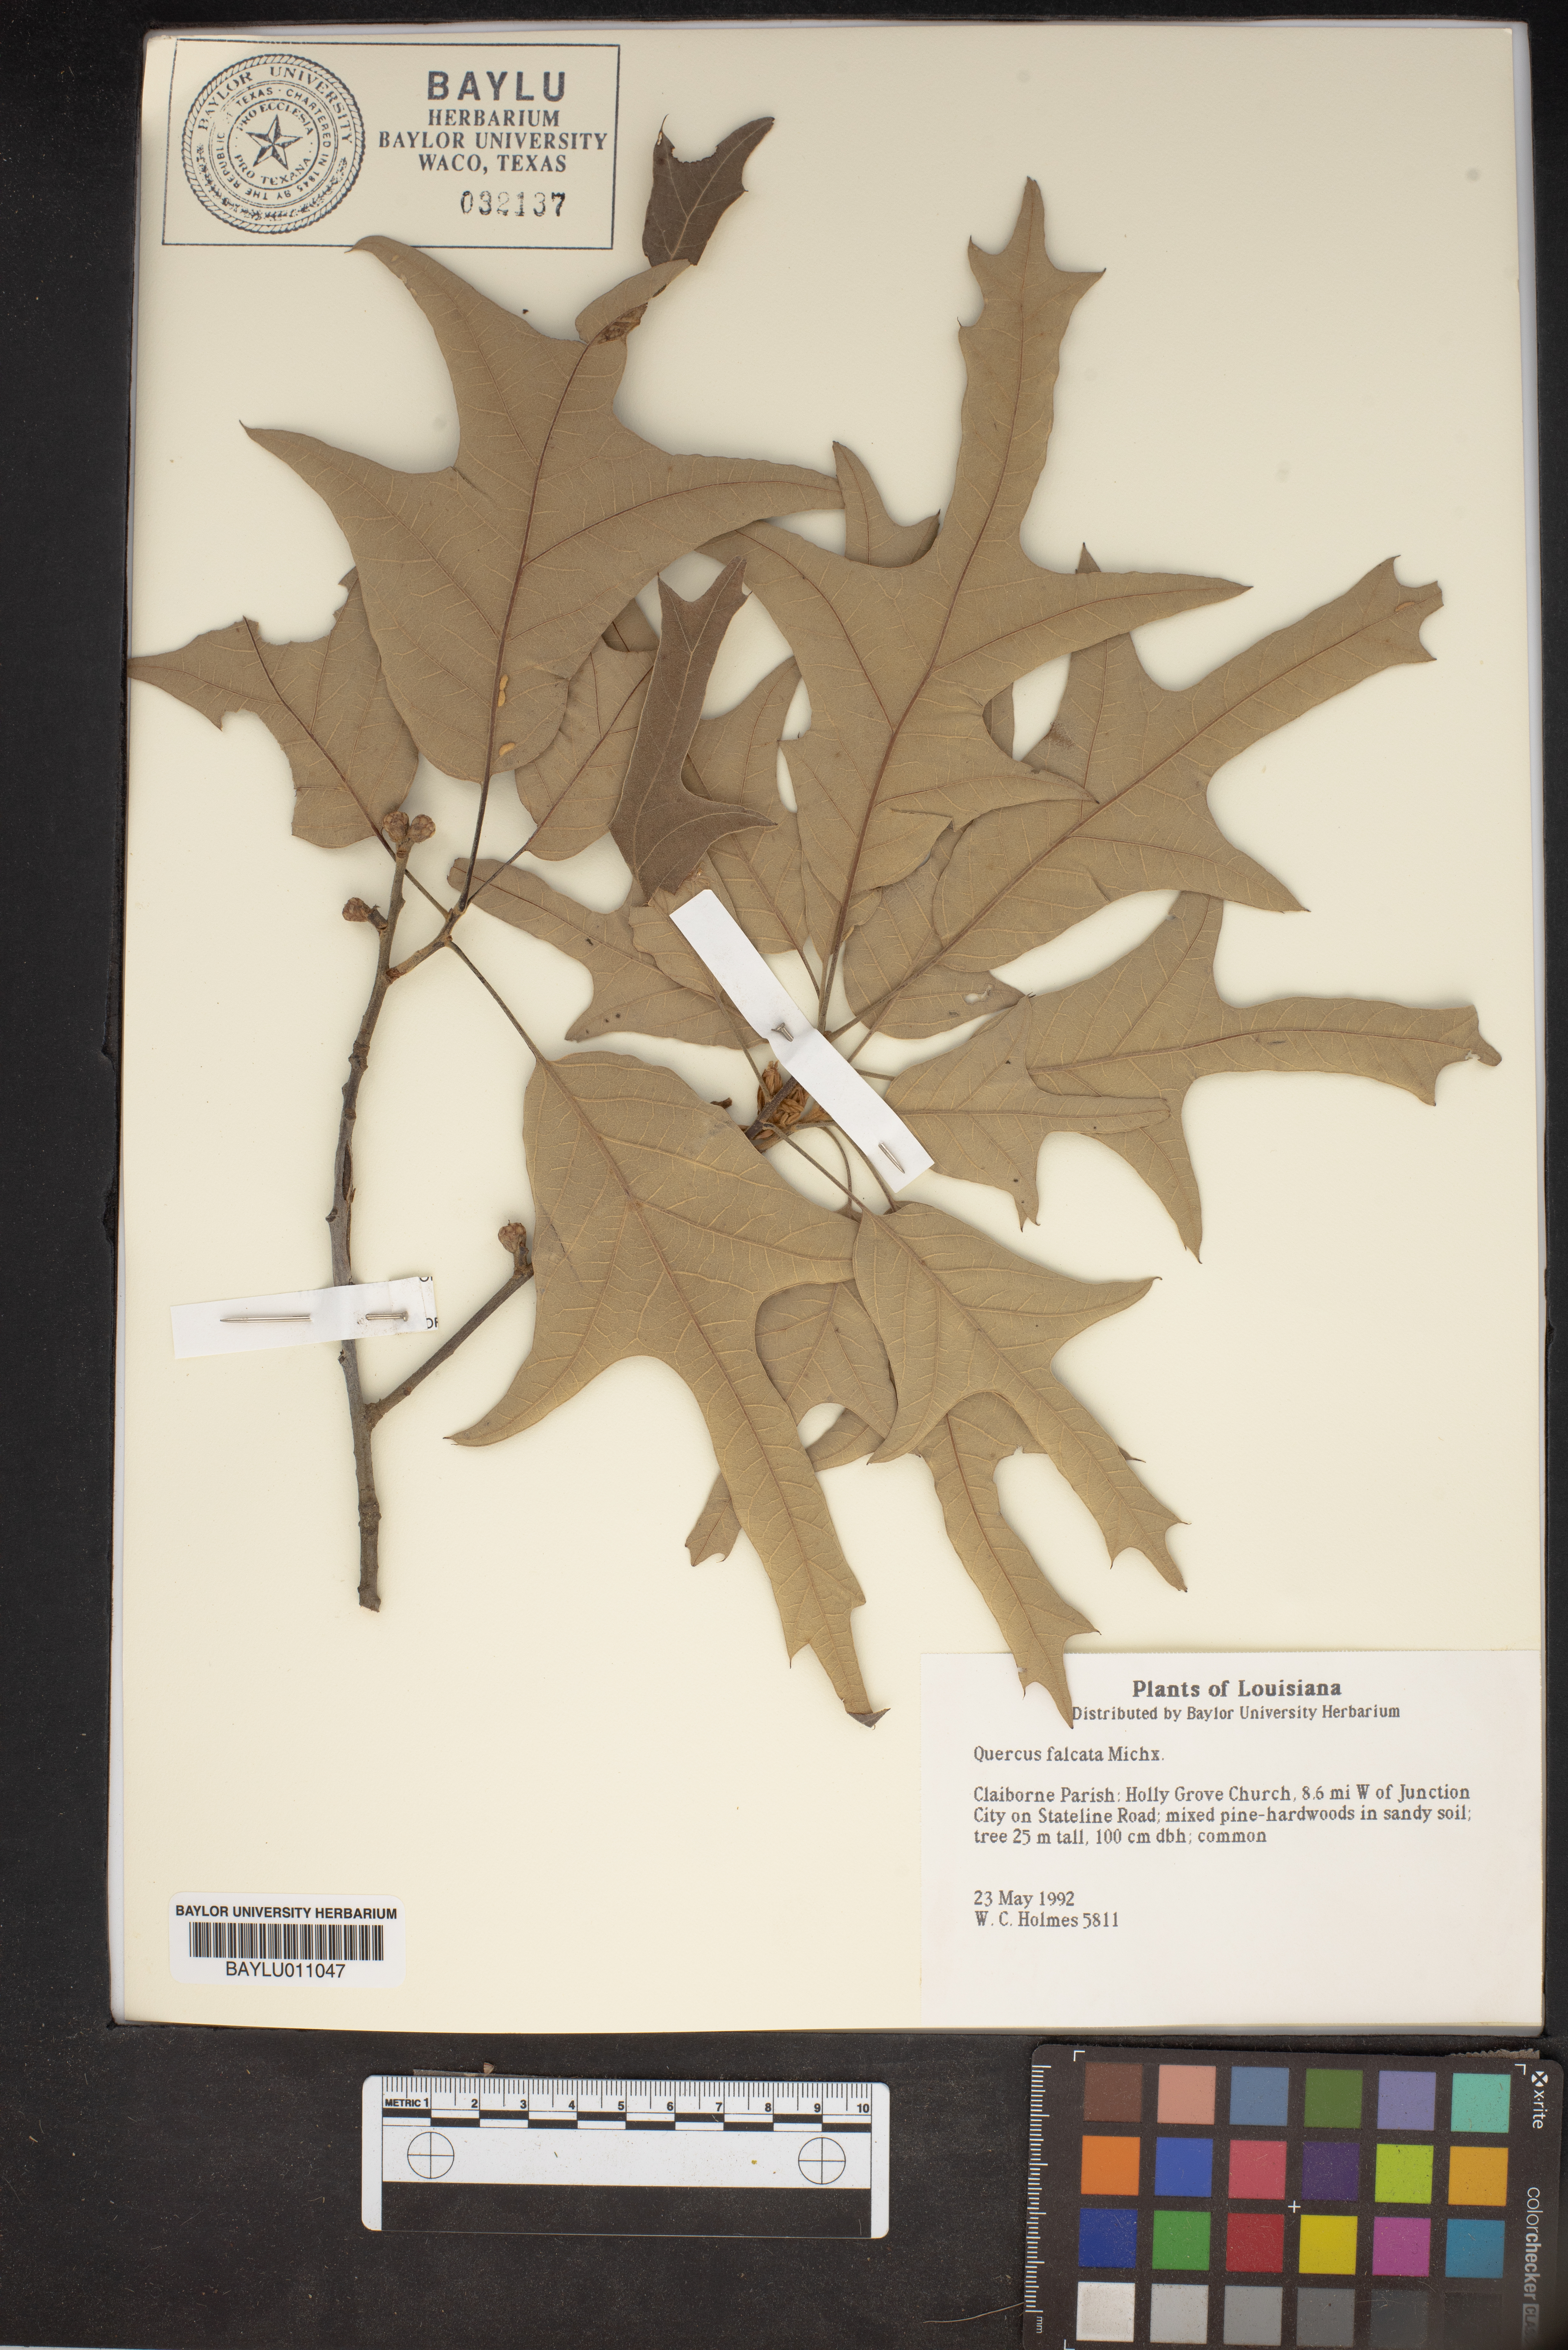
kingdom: Plantae
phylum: Tracheophyta
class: Magnoliopsida
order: Fagales
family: Fagaceae
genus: Quercus
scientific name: Quercus falcata
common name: Southern red oak
